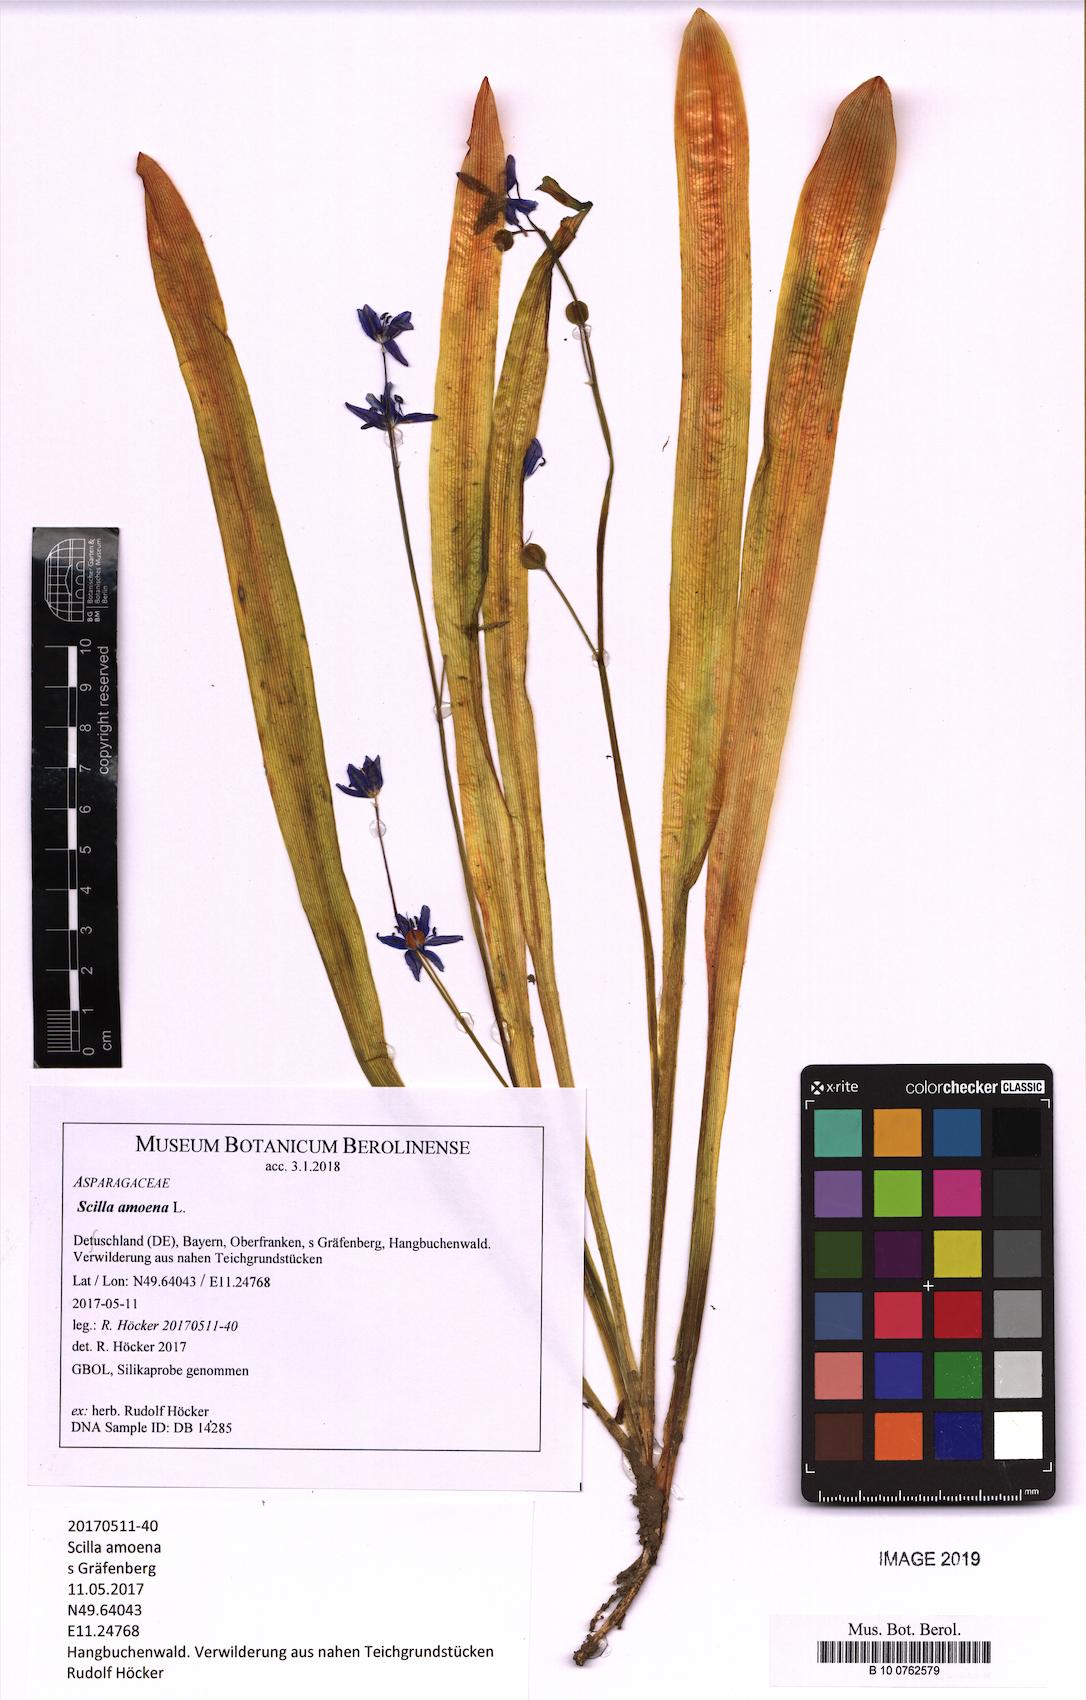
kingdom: Plantae
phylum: Tracheophyta
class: Liliopsida
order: Asparagales
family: Asparagaceae
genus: Scilla
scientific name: Scilla amoena
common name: Star-hyacinth
